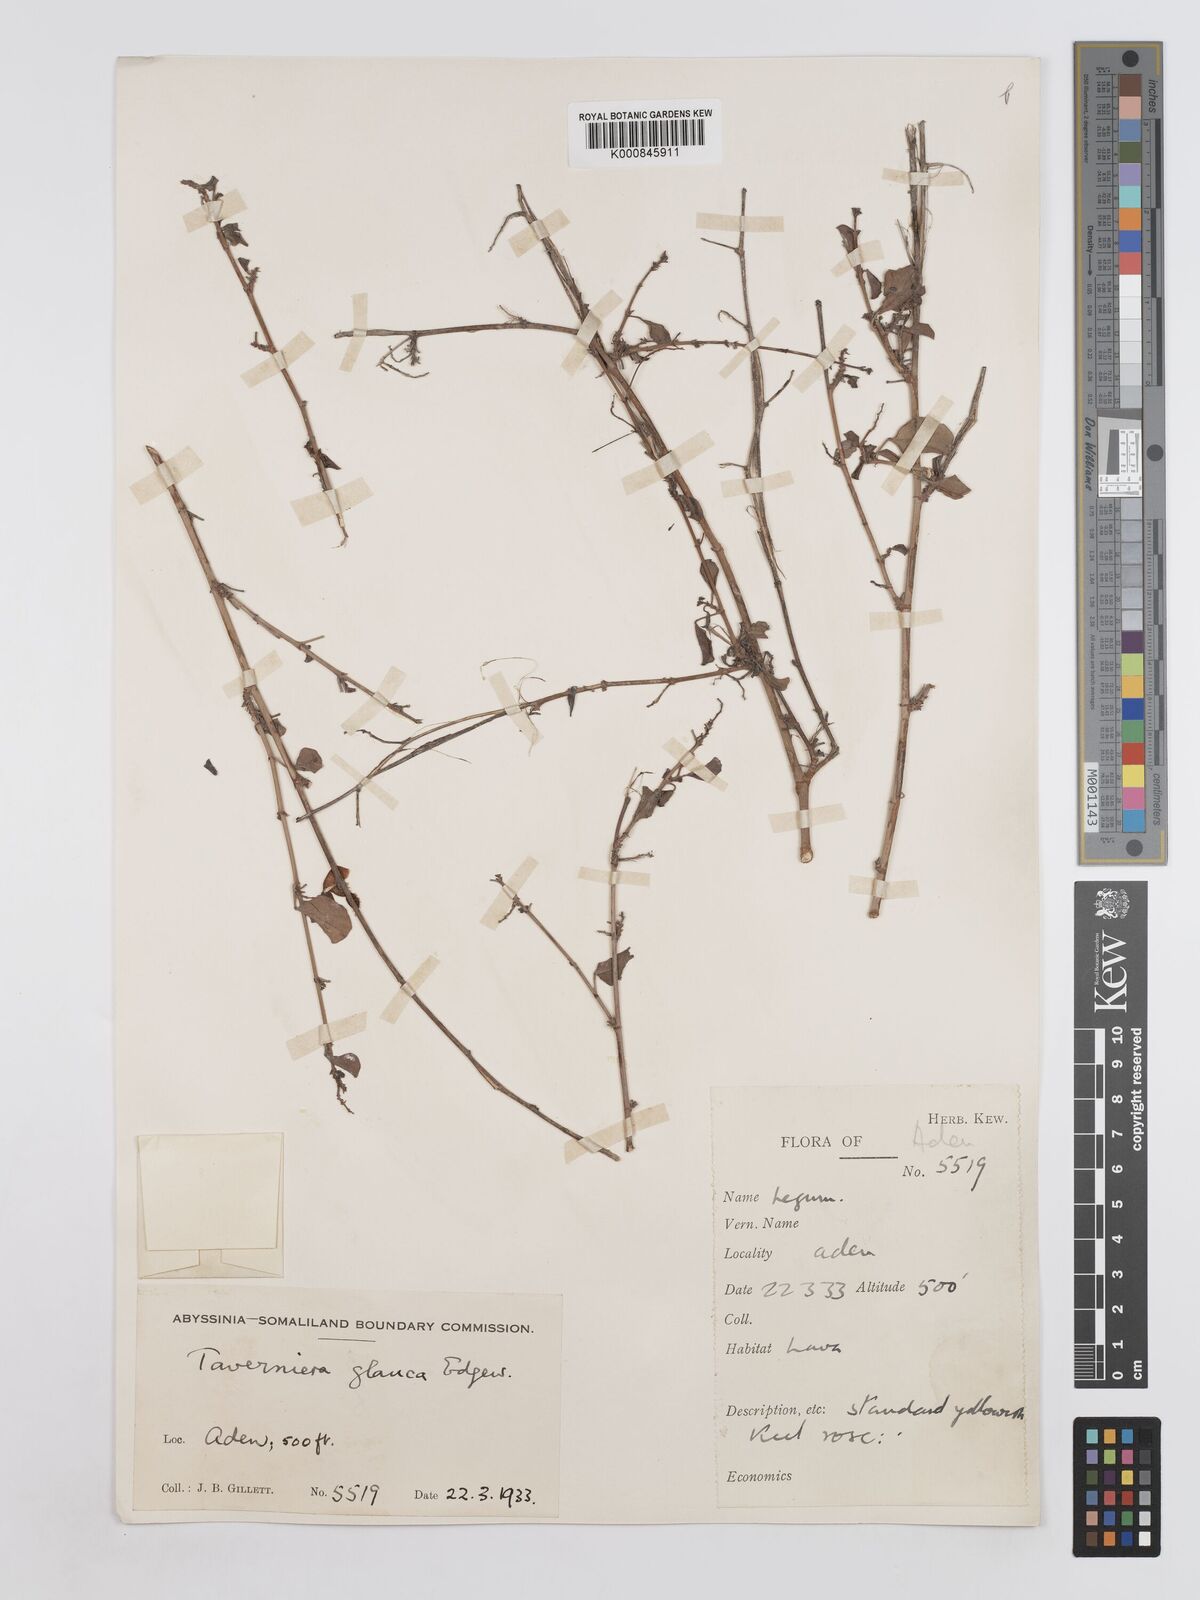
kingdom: Plantae
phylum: Tracheophyta
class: Magnoliopsida
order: Fabales
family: Fabaceae
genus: Taverniera
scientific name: Taverniera glauca
